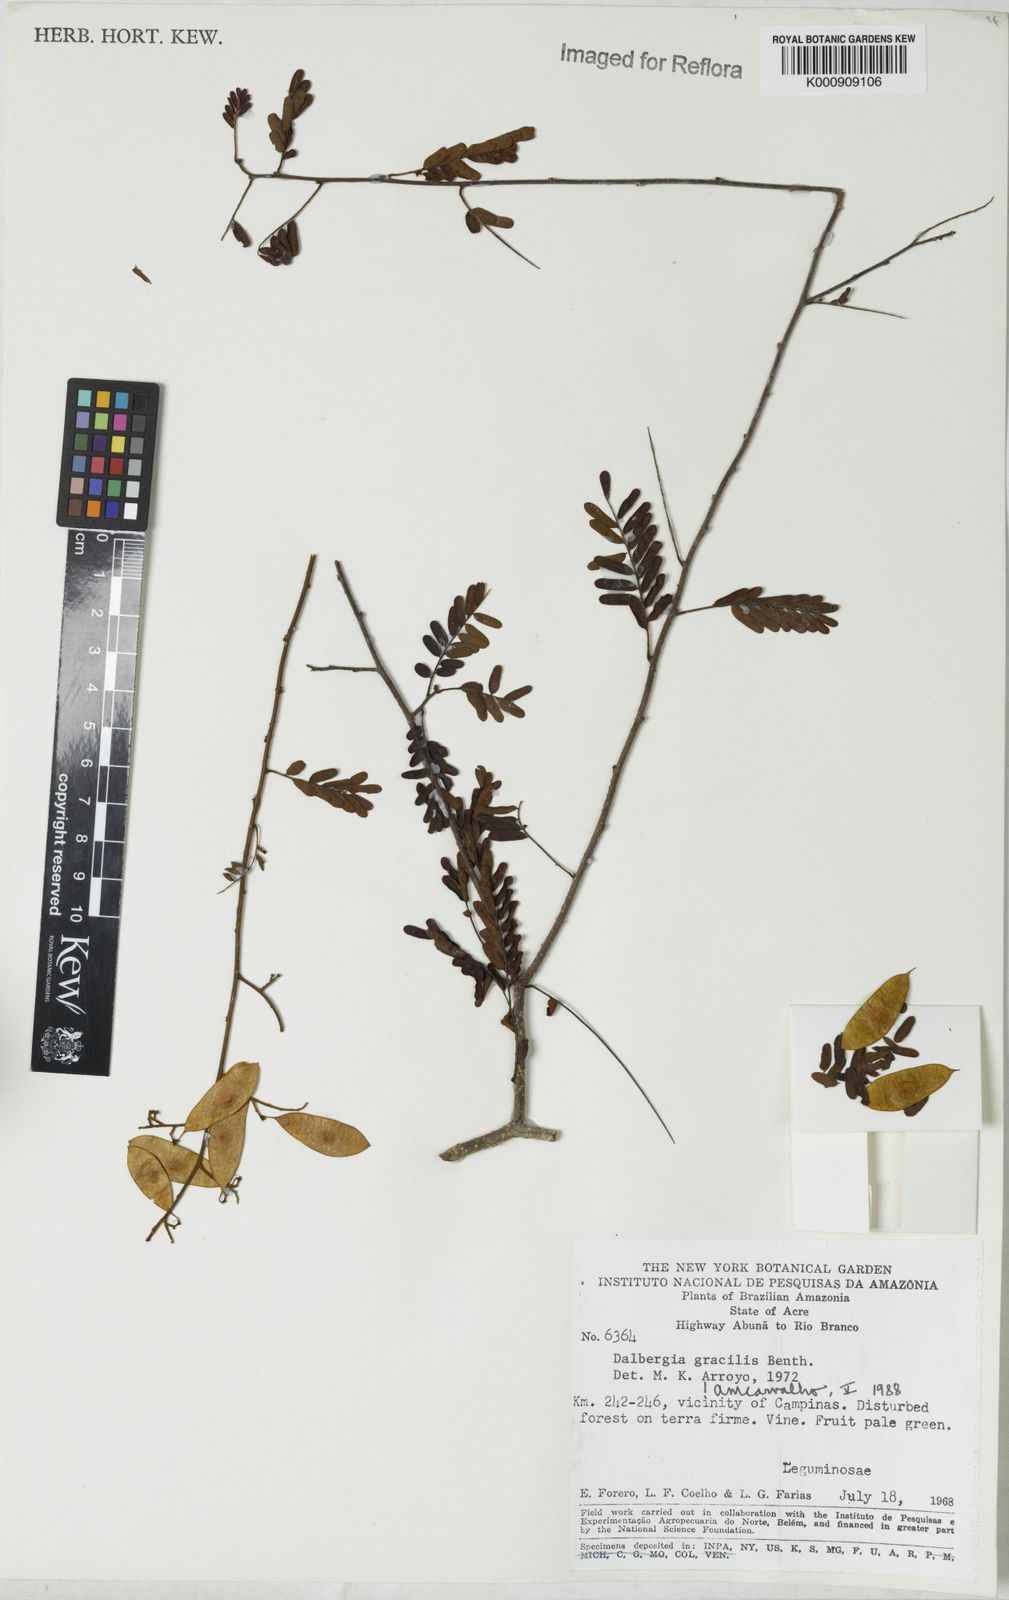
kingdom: Plantae
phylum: Tracheophyta
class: Magnoliopsida
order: Fabales
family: Fabaceae
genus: Dalbergia
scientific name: Dalbergia gracilis
